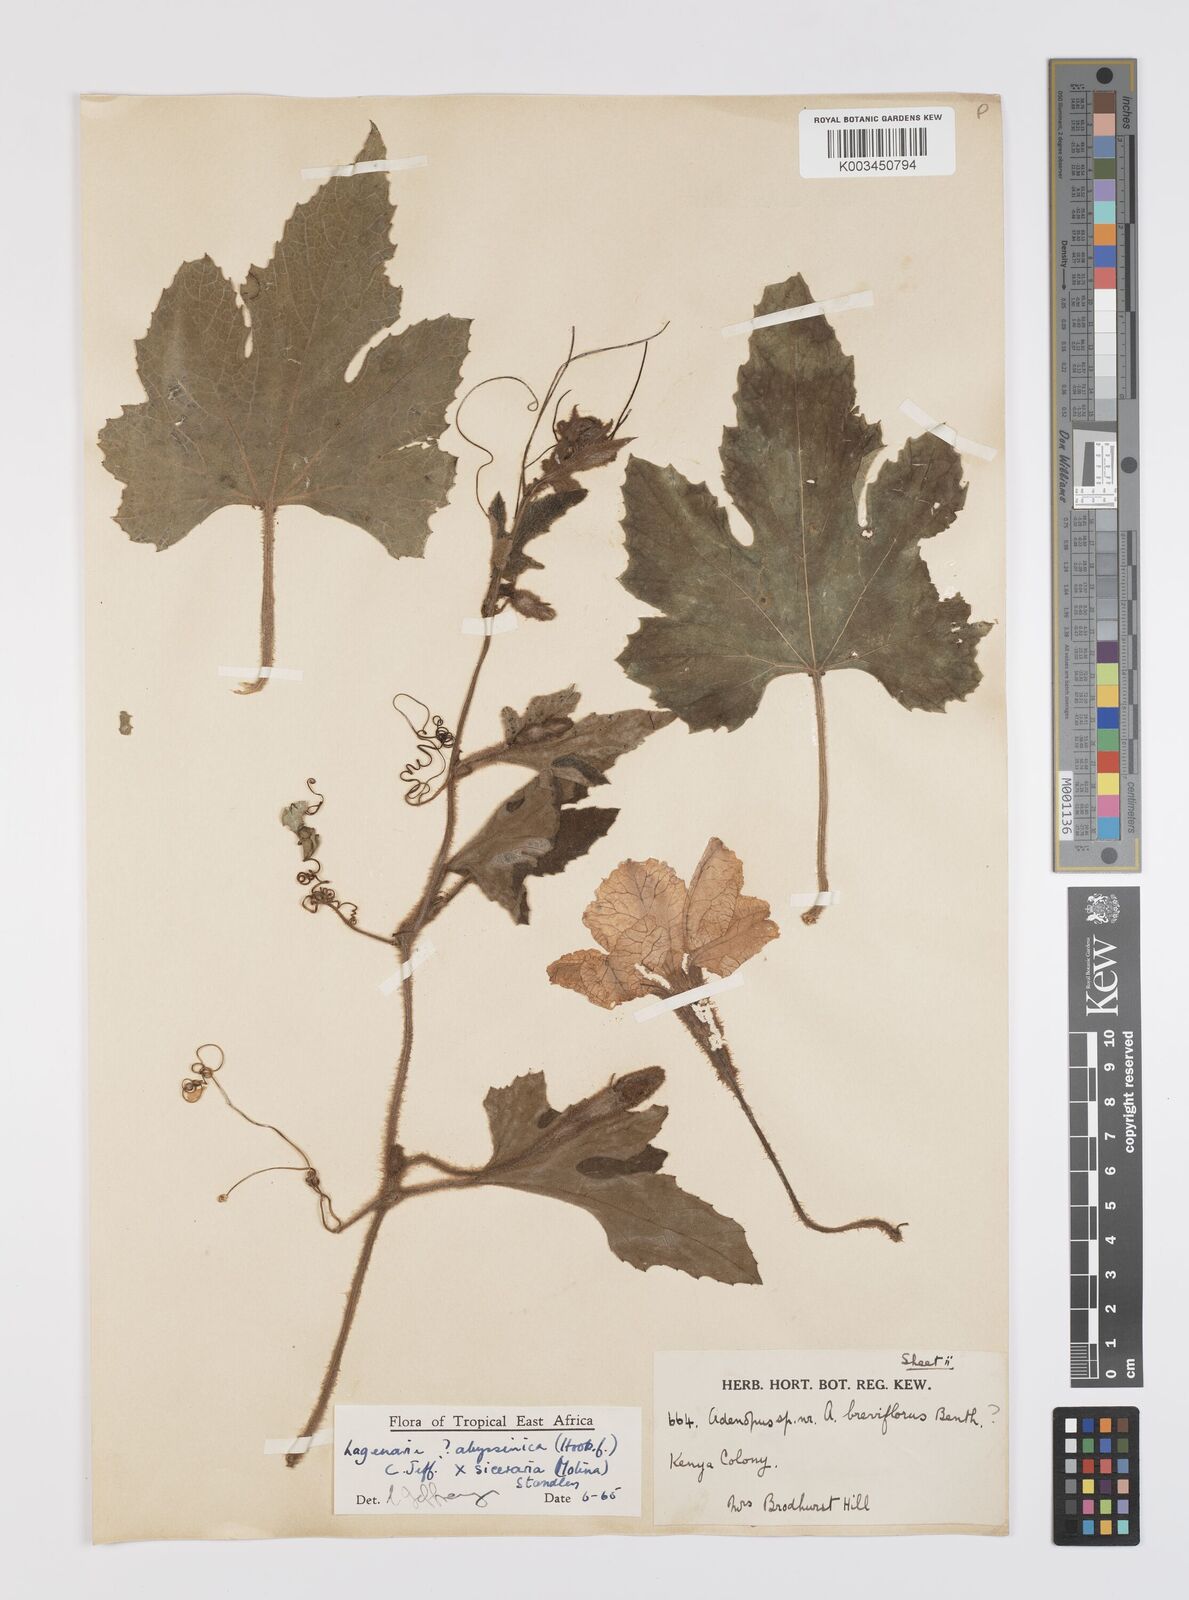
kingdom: Plantae
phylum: Tracheophyta
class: Magnoliopsida
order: Cucurbitales
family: Cucurbitaceae
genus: Lagenaria
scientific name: Lagenaria abyssinica
